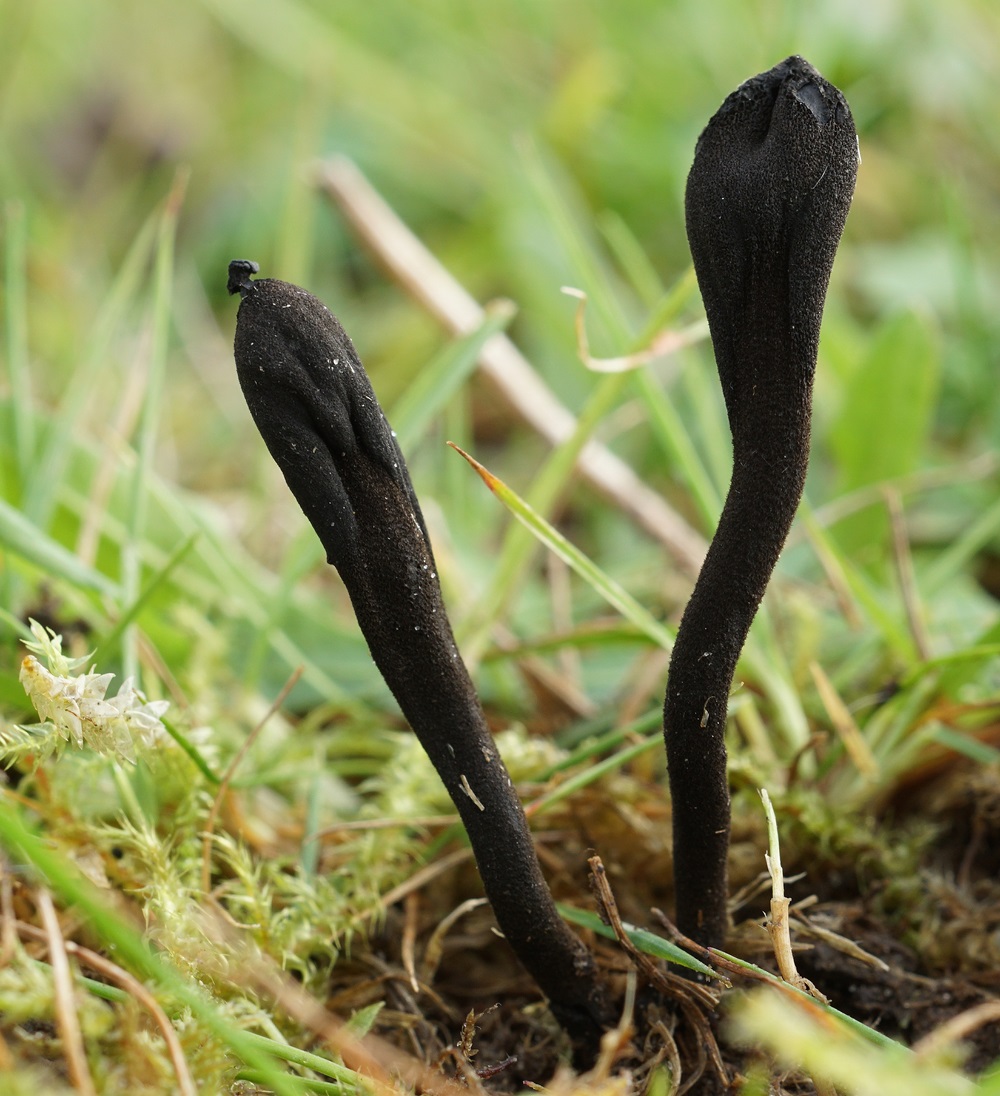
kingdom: Fungi
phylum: Ascomycota
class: Geoglossomycetes
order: Geoglossales
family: Geoglossaceae
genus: Trichoglossum
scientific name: Trichoglossum walteri
